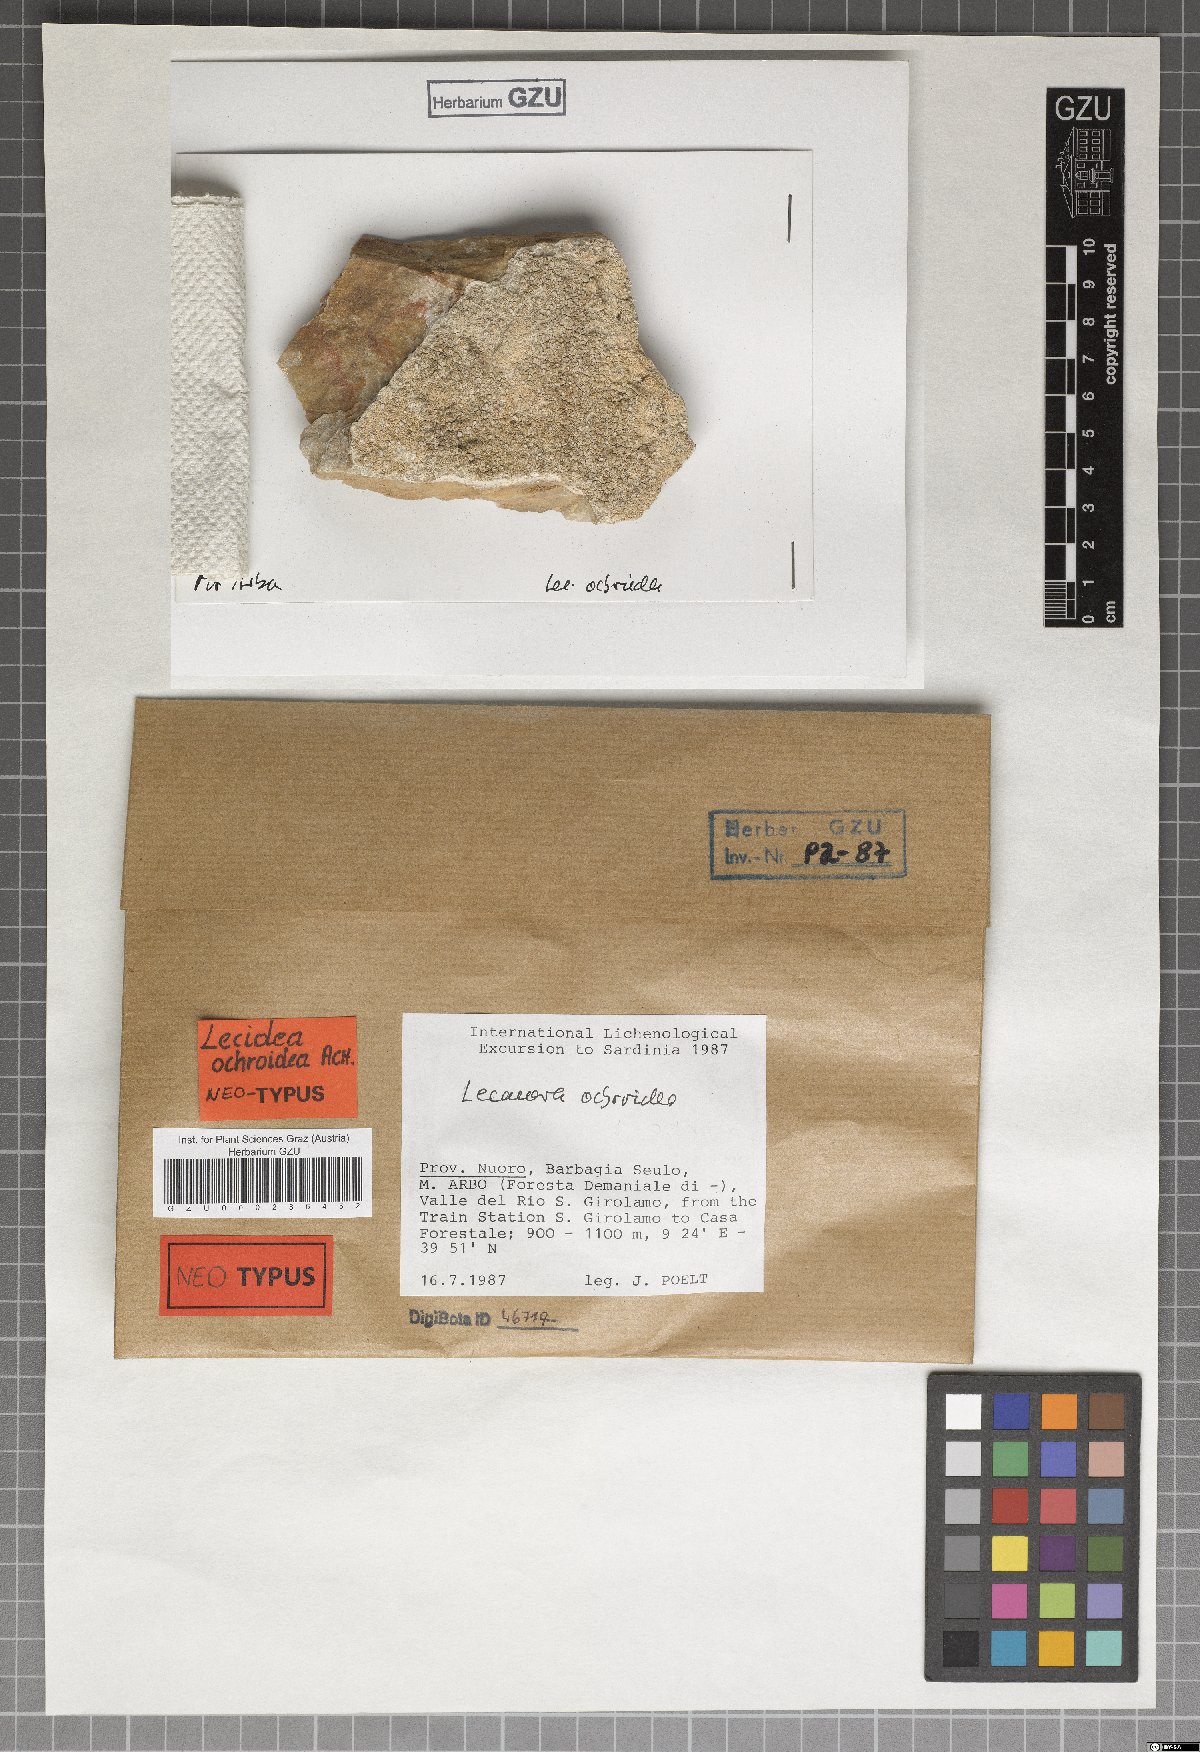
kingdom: Fungi
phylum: Ascomycota
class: Lecanoromycetes
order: Lecideales
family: Lecideaceae
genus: Lecidea
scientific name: Lecidea capensis
